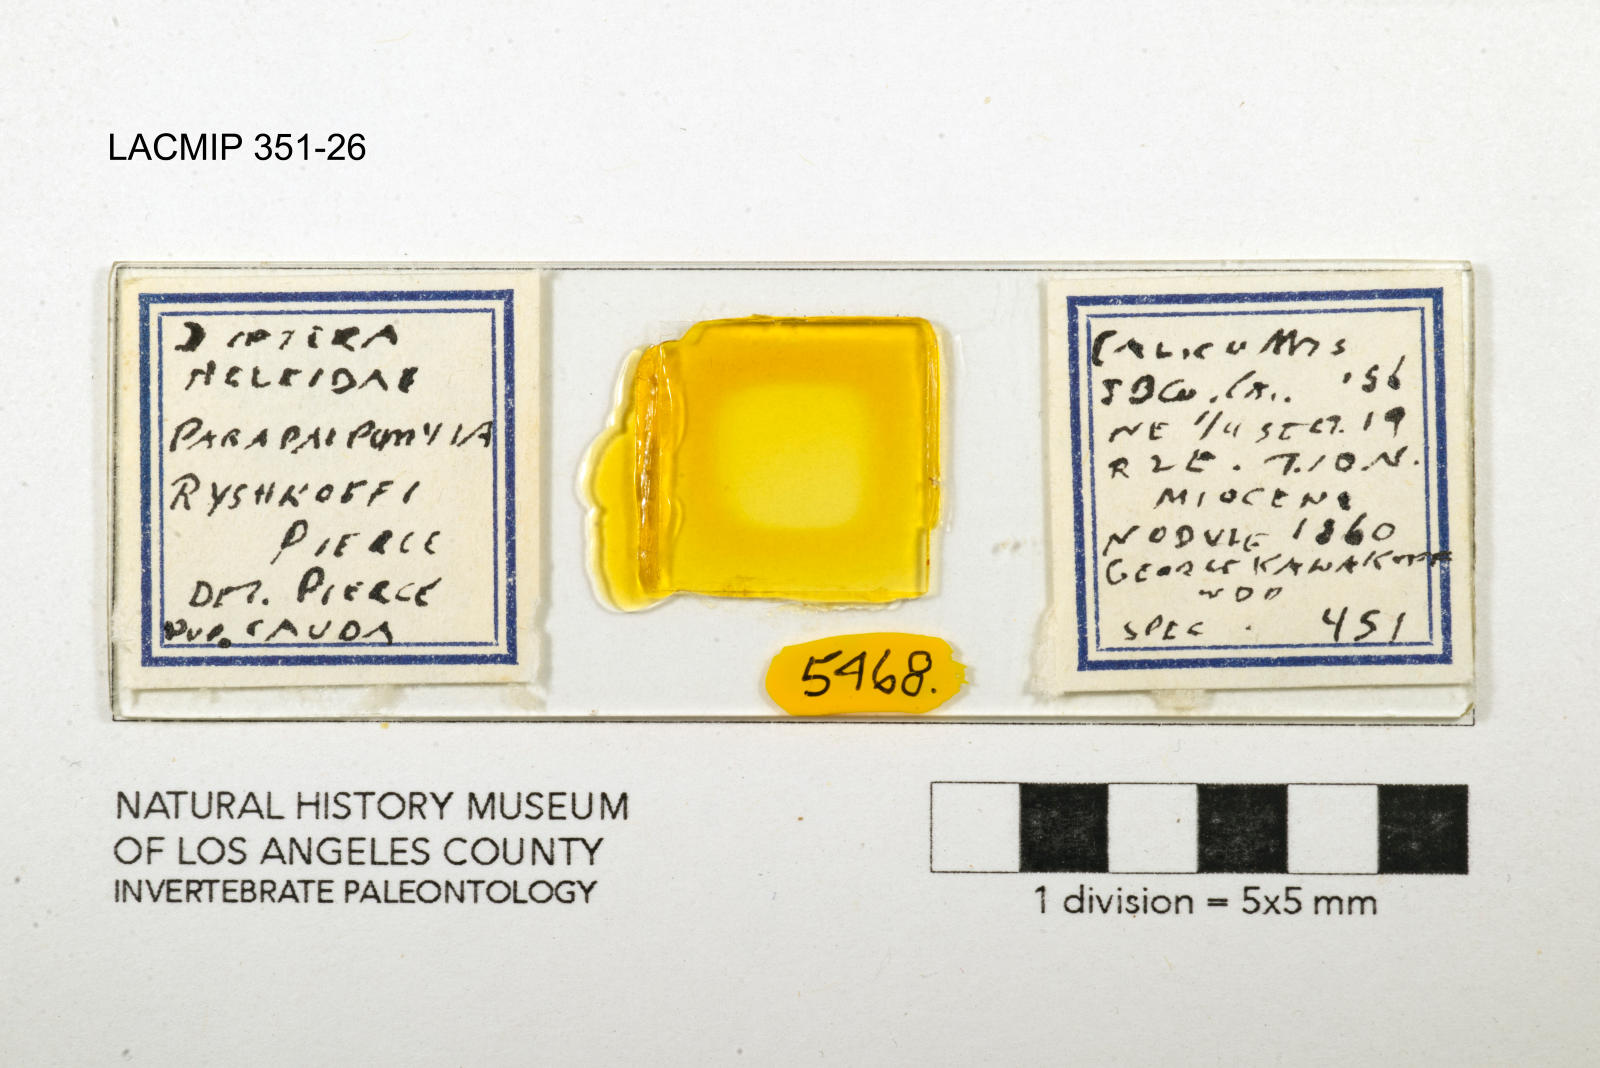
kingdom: Animalia
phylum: Arthropoda
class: Insecta
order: Diptera
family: Ceratopogonidae
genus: Palpomyia
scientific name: Palpomyia ryshkoffi
